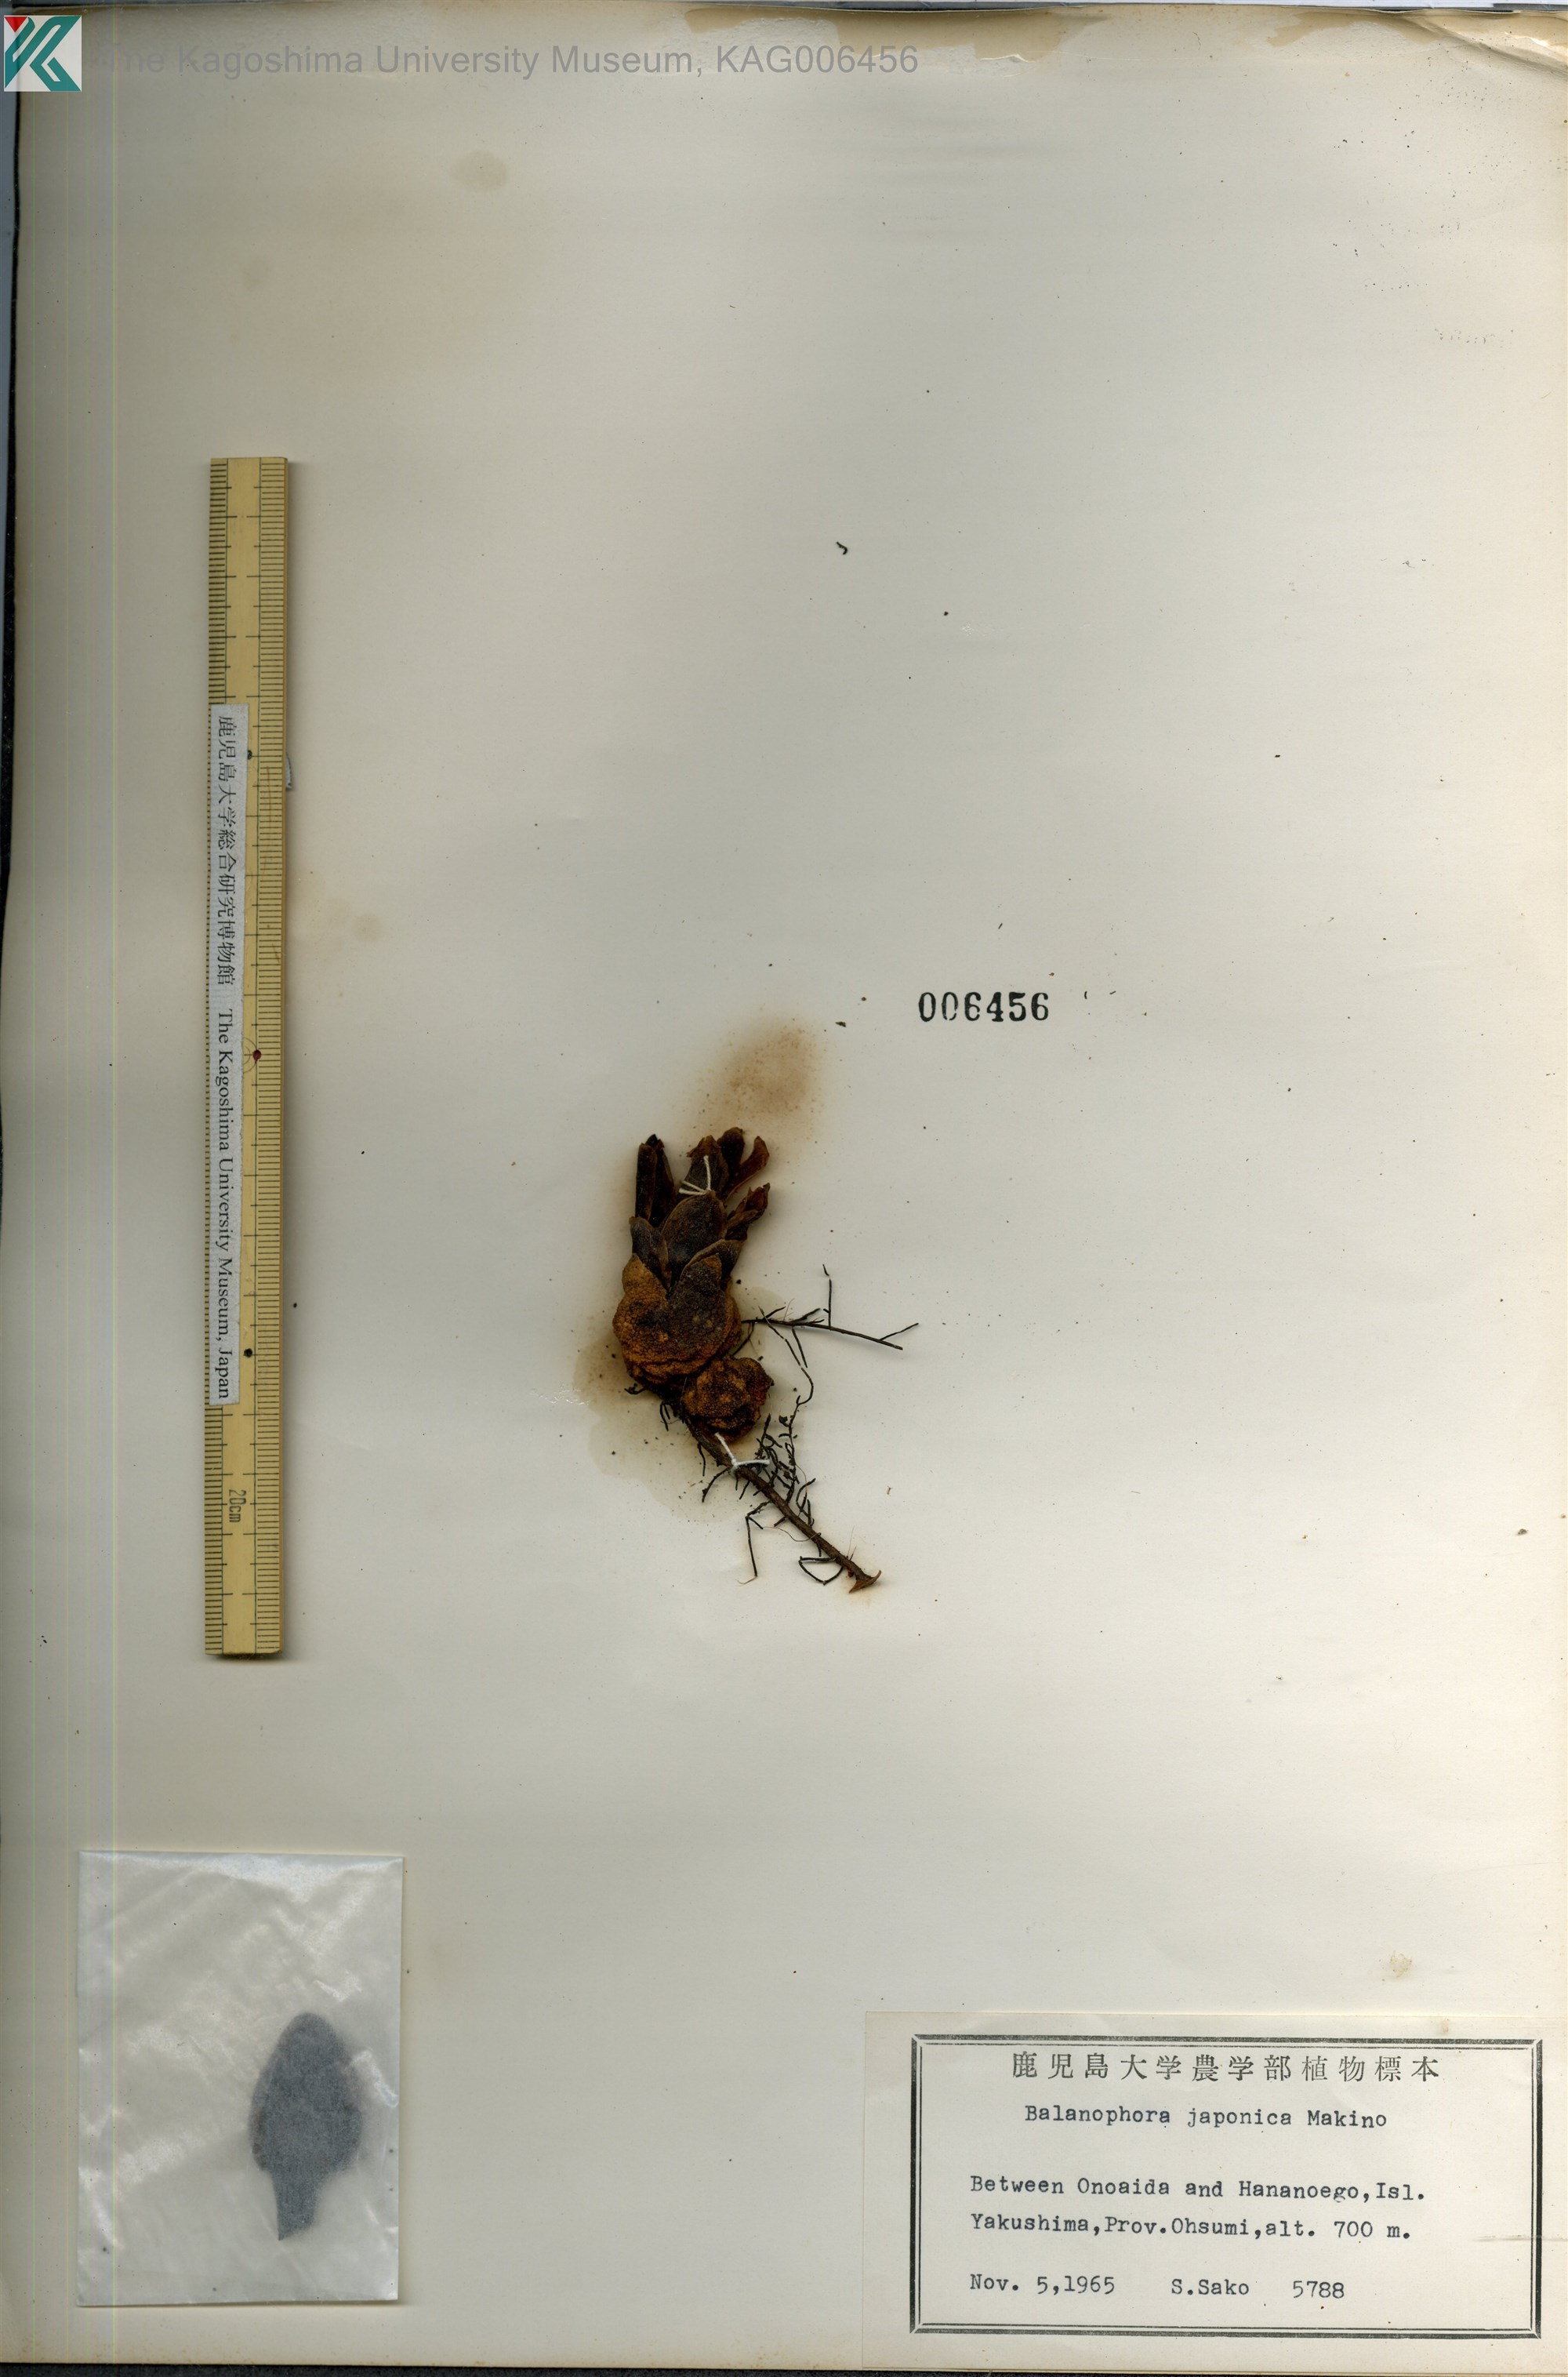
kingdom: Plantae
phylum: Tracheophyta
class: Magnoliopsida
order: Santalales
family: Balanophoraceae
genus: Balanophora
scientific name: Balanophora japonica
